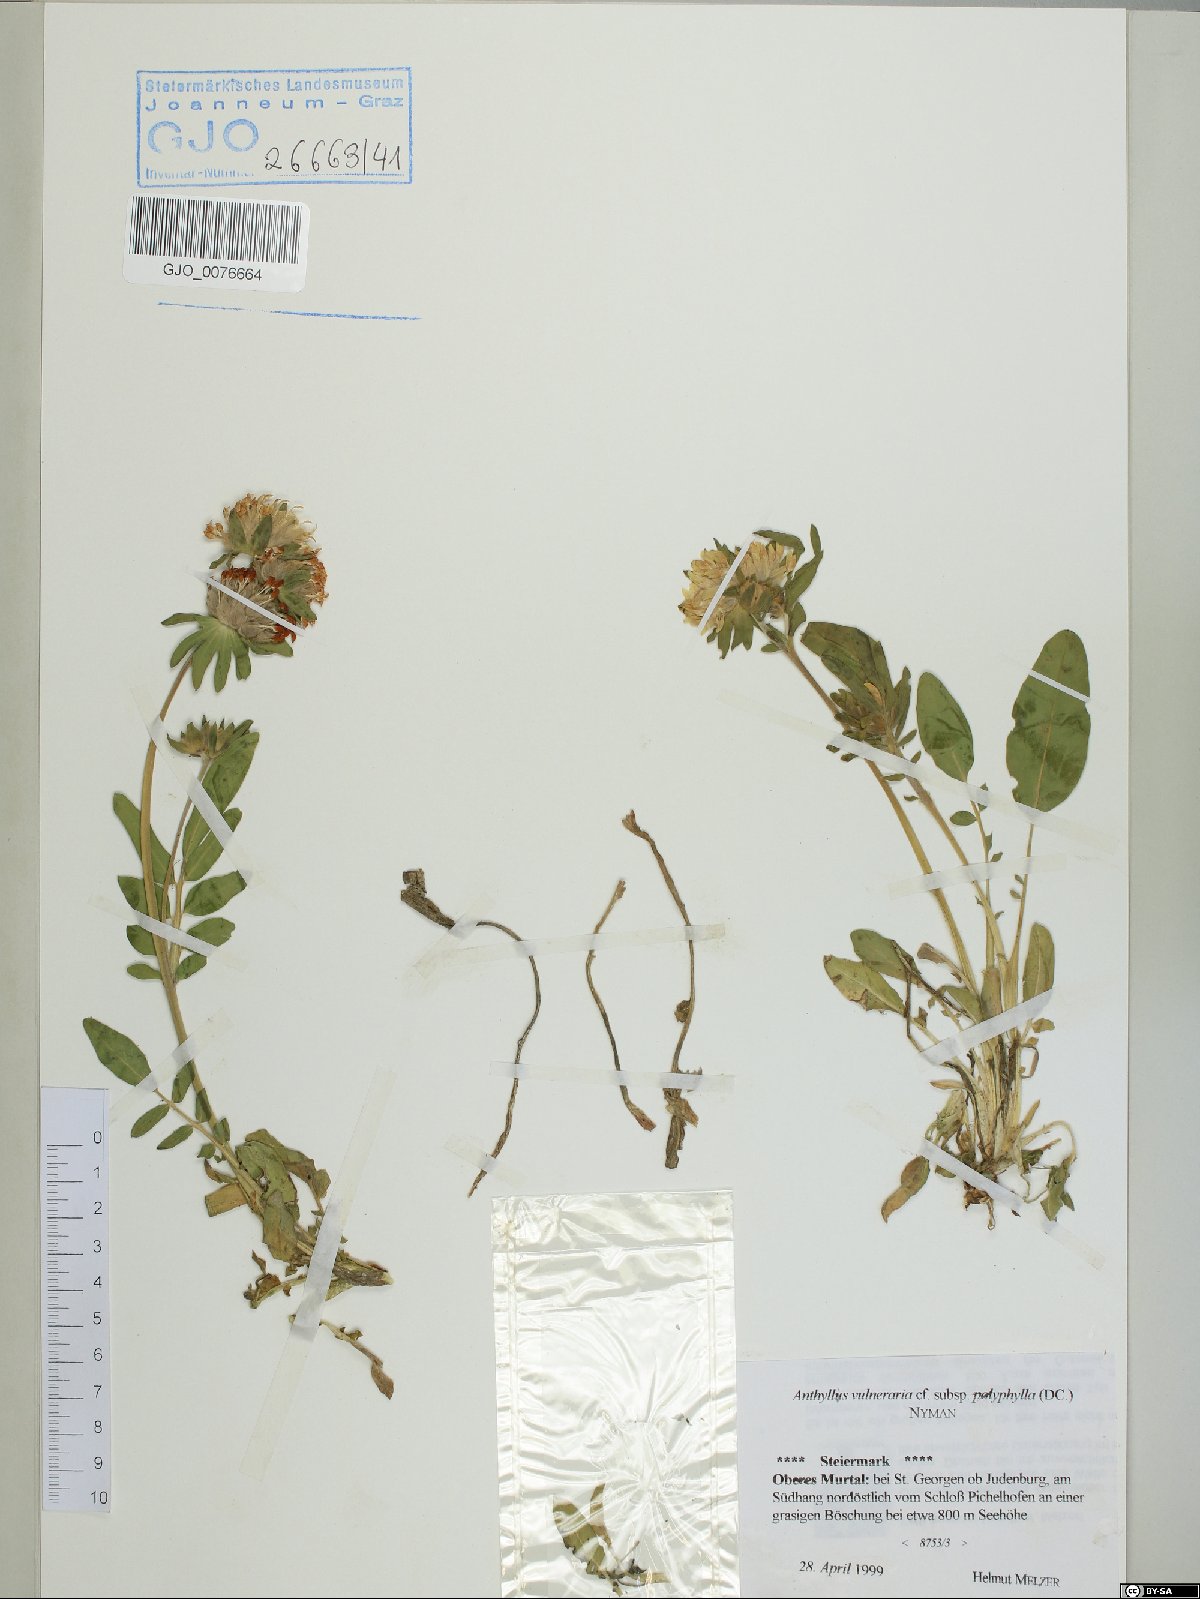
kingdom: Plantae
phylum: Tracheophyta
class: Magnoliopsida
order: Fabales
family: Fabaceae
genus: Anthyllis
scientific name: Anthyllis vulneraria
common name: Kidney vetch
